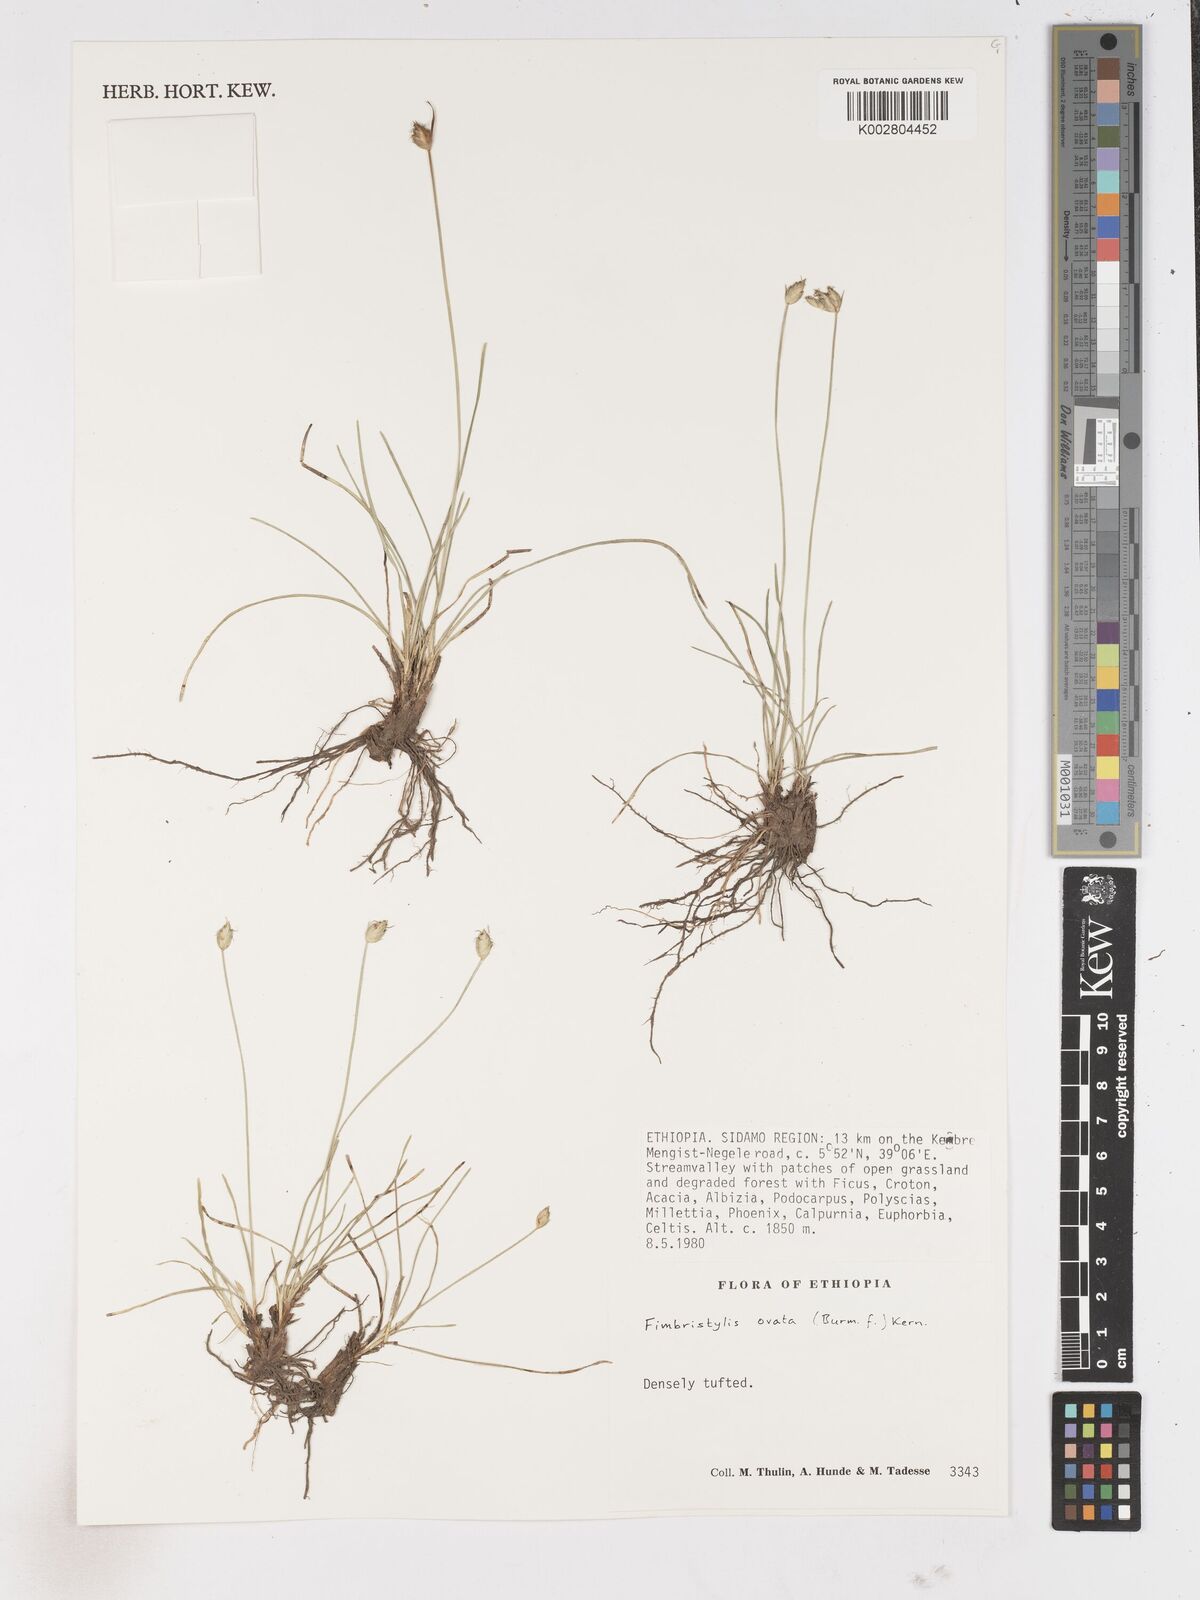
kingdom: Plantae
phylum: Tracheophyta
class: Liliopsida
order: Poales
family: Cyperaceae
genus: Abildgaardia
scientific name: Abildgaardia ovata
